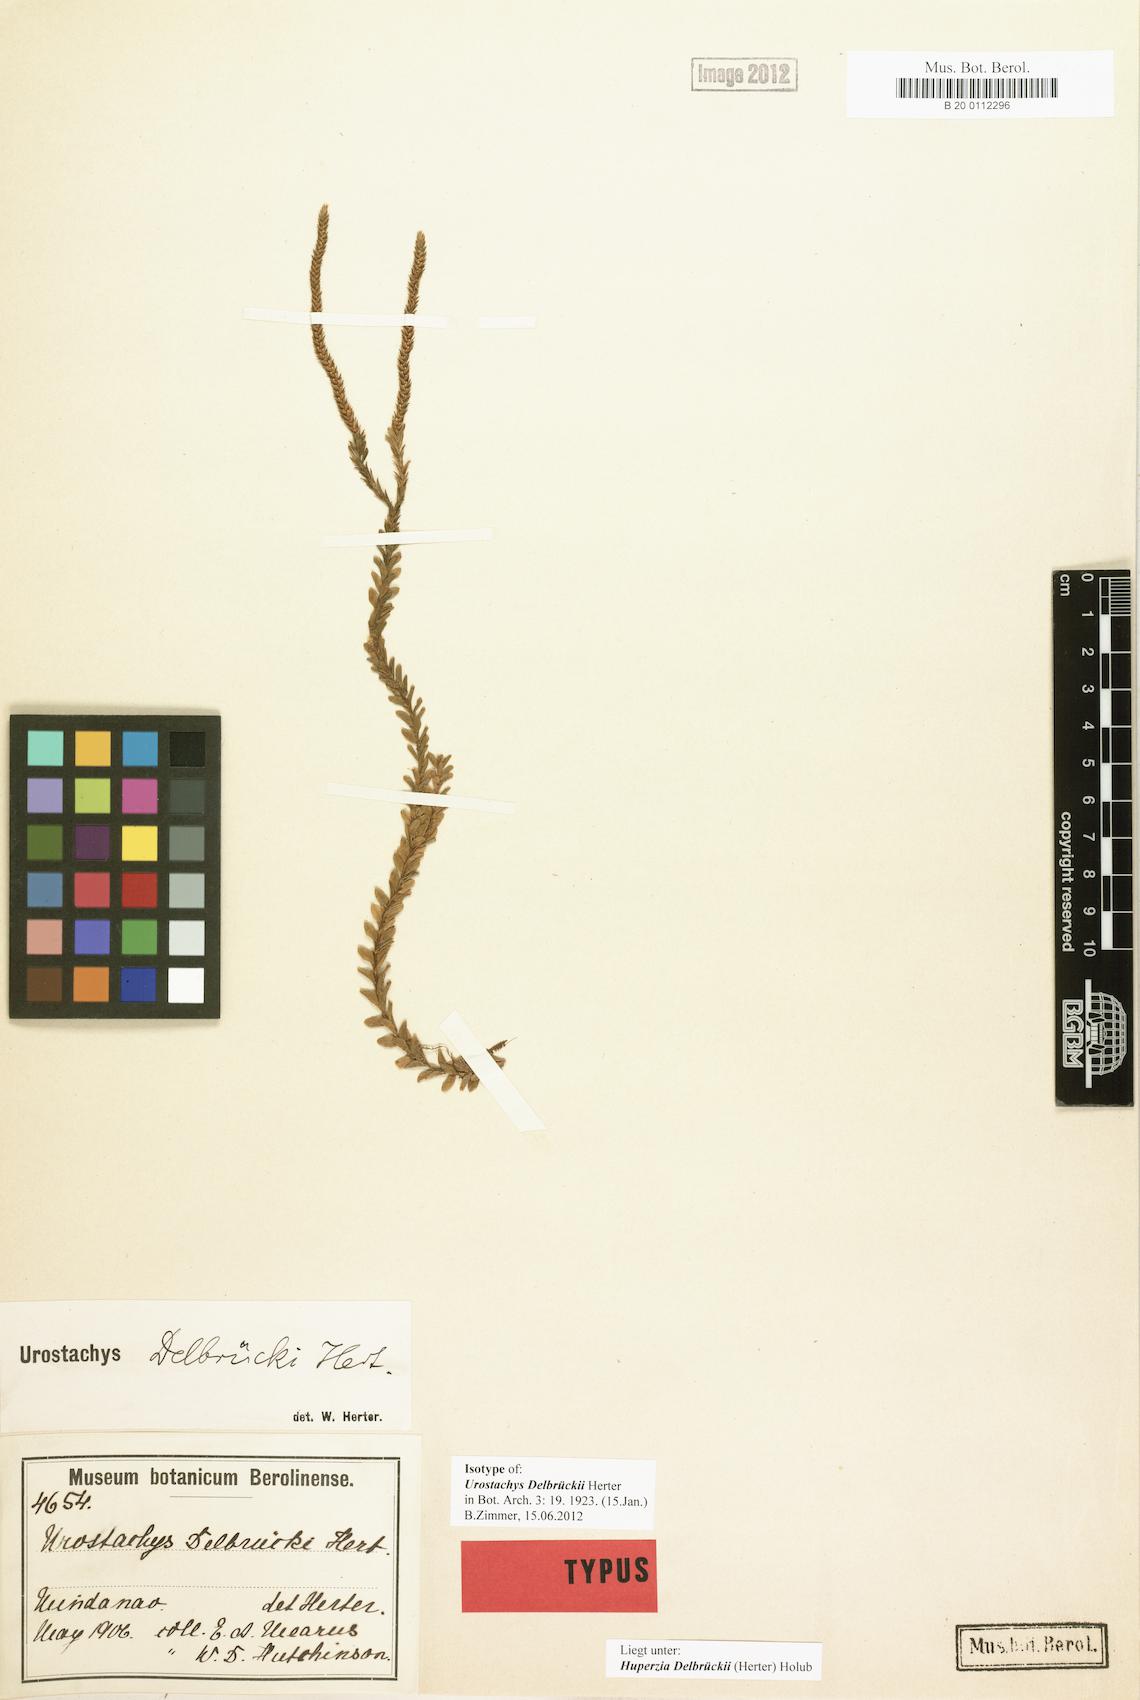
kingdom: Plantae
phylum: Tracheophyta
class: Lycopodiopsida
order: Lycopodiales
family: Lycopodiaceae
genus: Phlegmariurus
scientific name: Phlegmariurus delbrueckii
